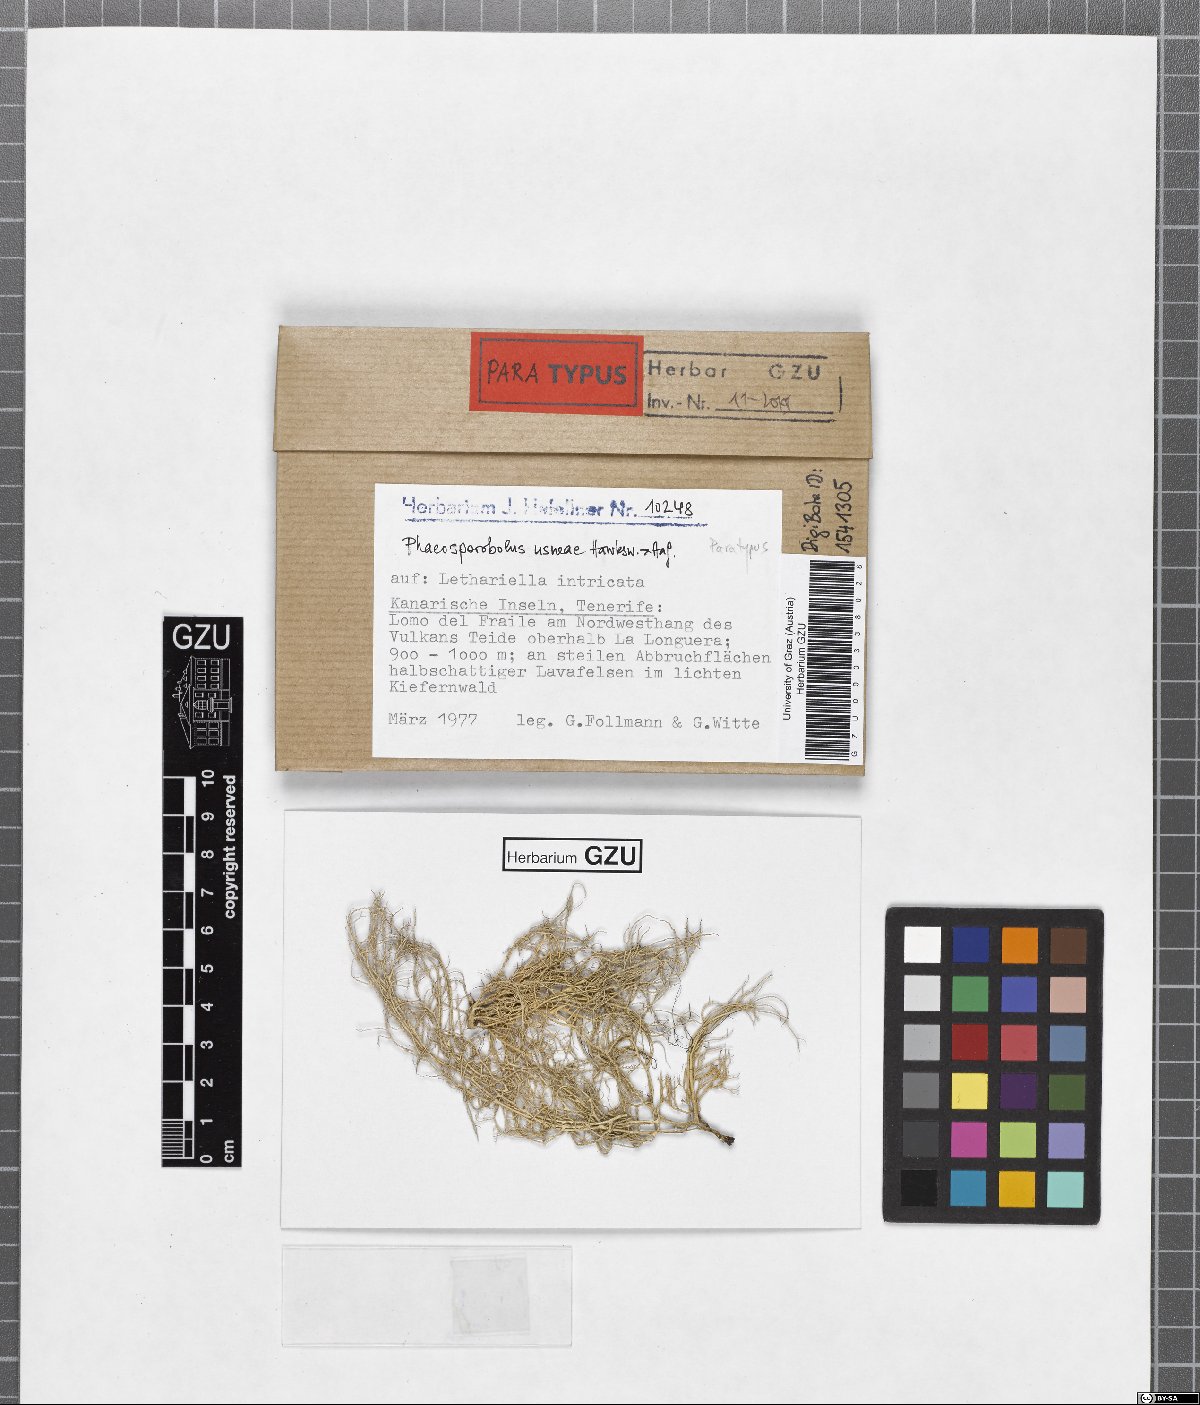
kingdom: Fungi
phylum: Ascomycota
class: Arthoniomycetes
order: Lichenostigmatales
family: Phaeococcomycetaceae
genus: Phaeosporobolus
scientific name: Phaeosporobolus usneae
